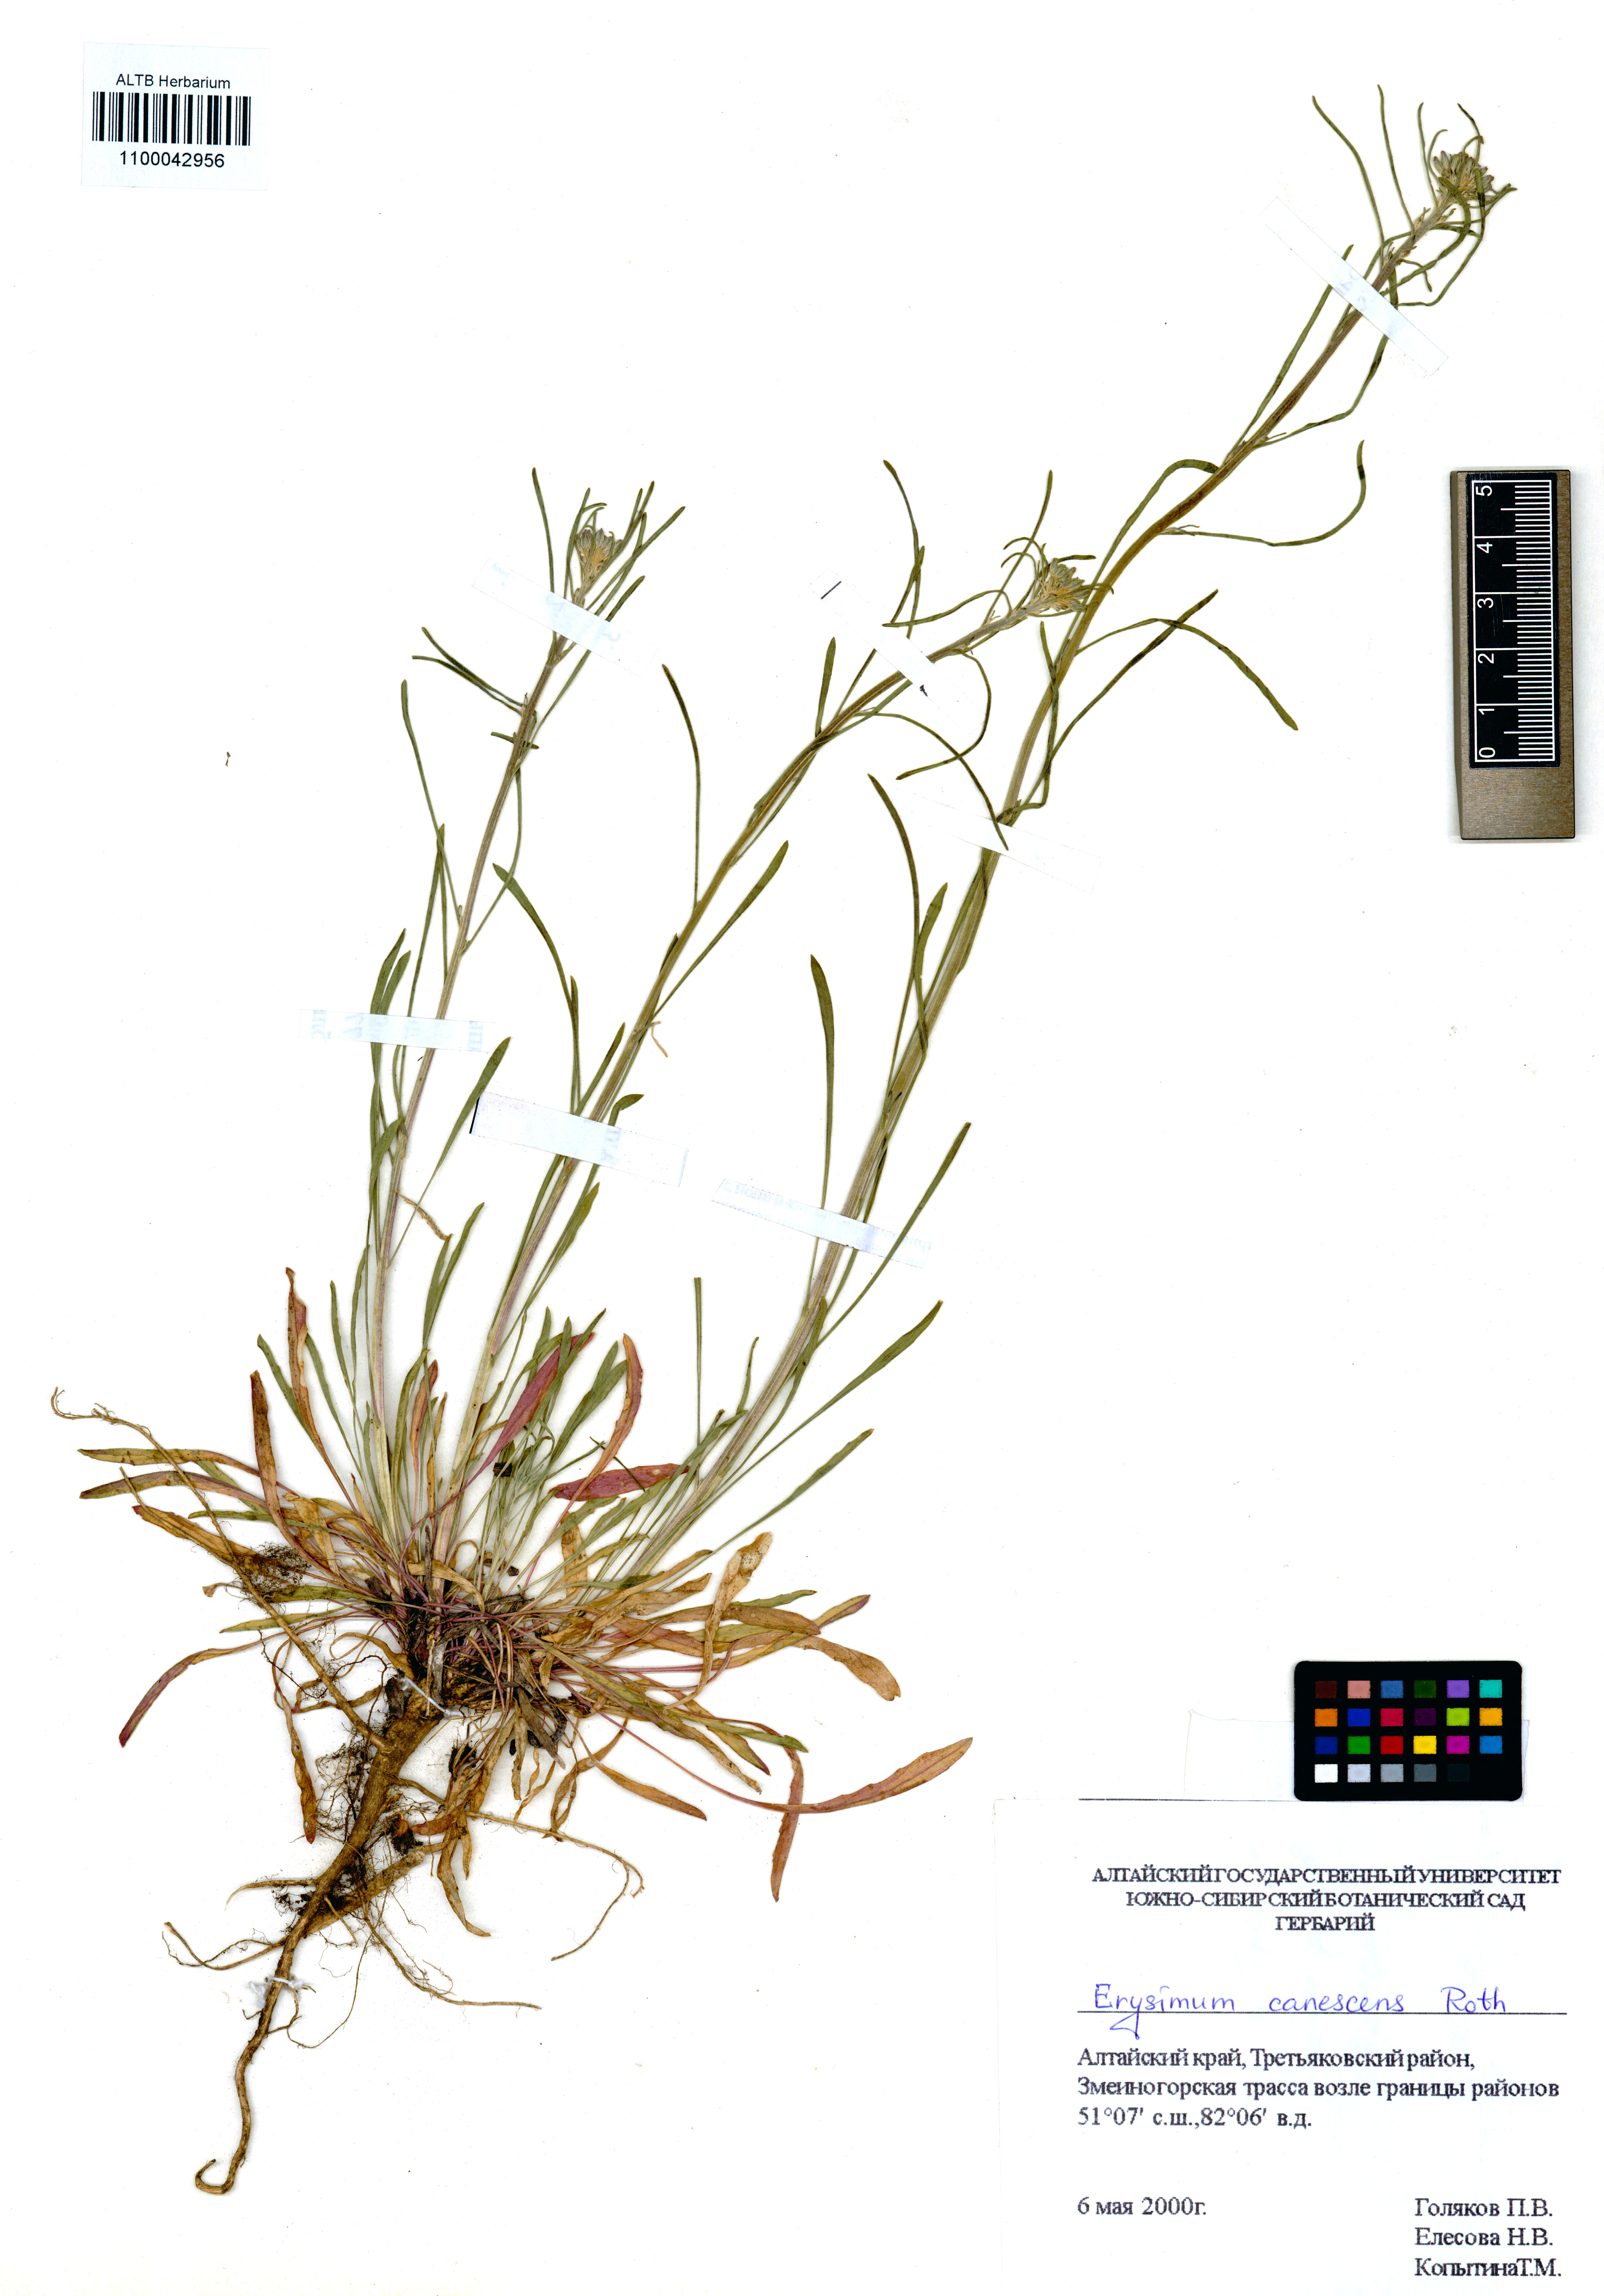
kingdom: Plantae
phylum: Tracheophyta
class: Magnoliopsida
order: Brassicales
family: Brassicaceae
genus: Erysimum
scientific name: Erysimum canescens
